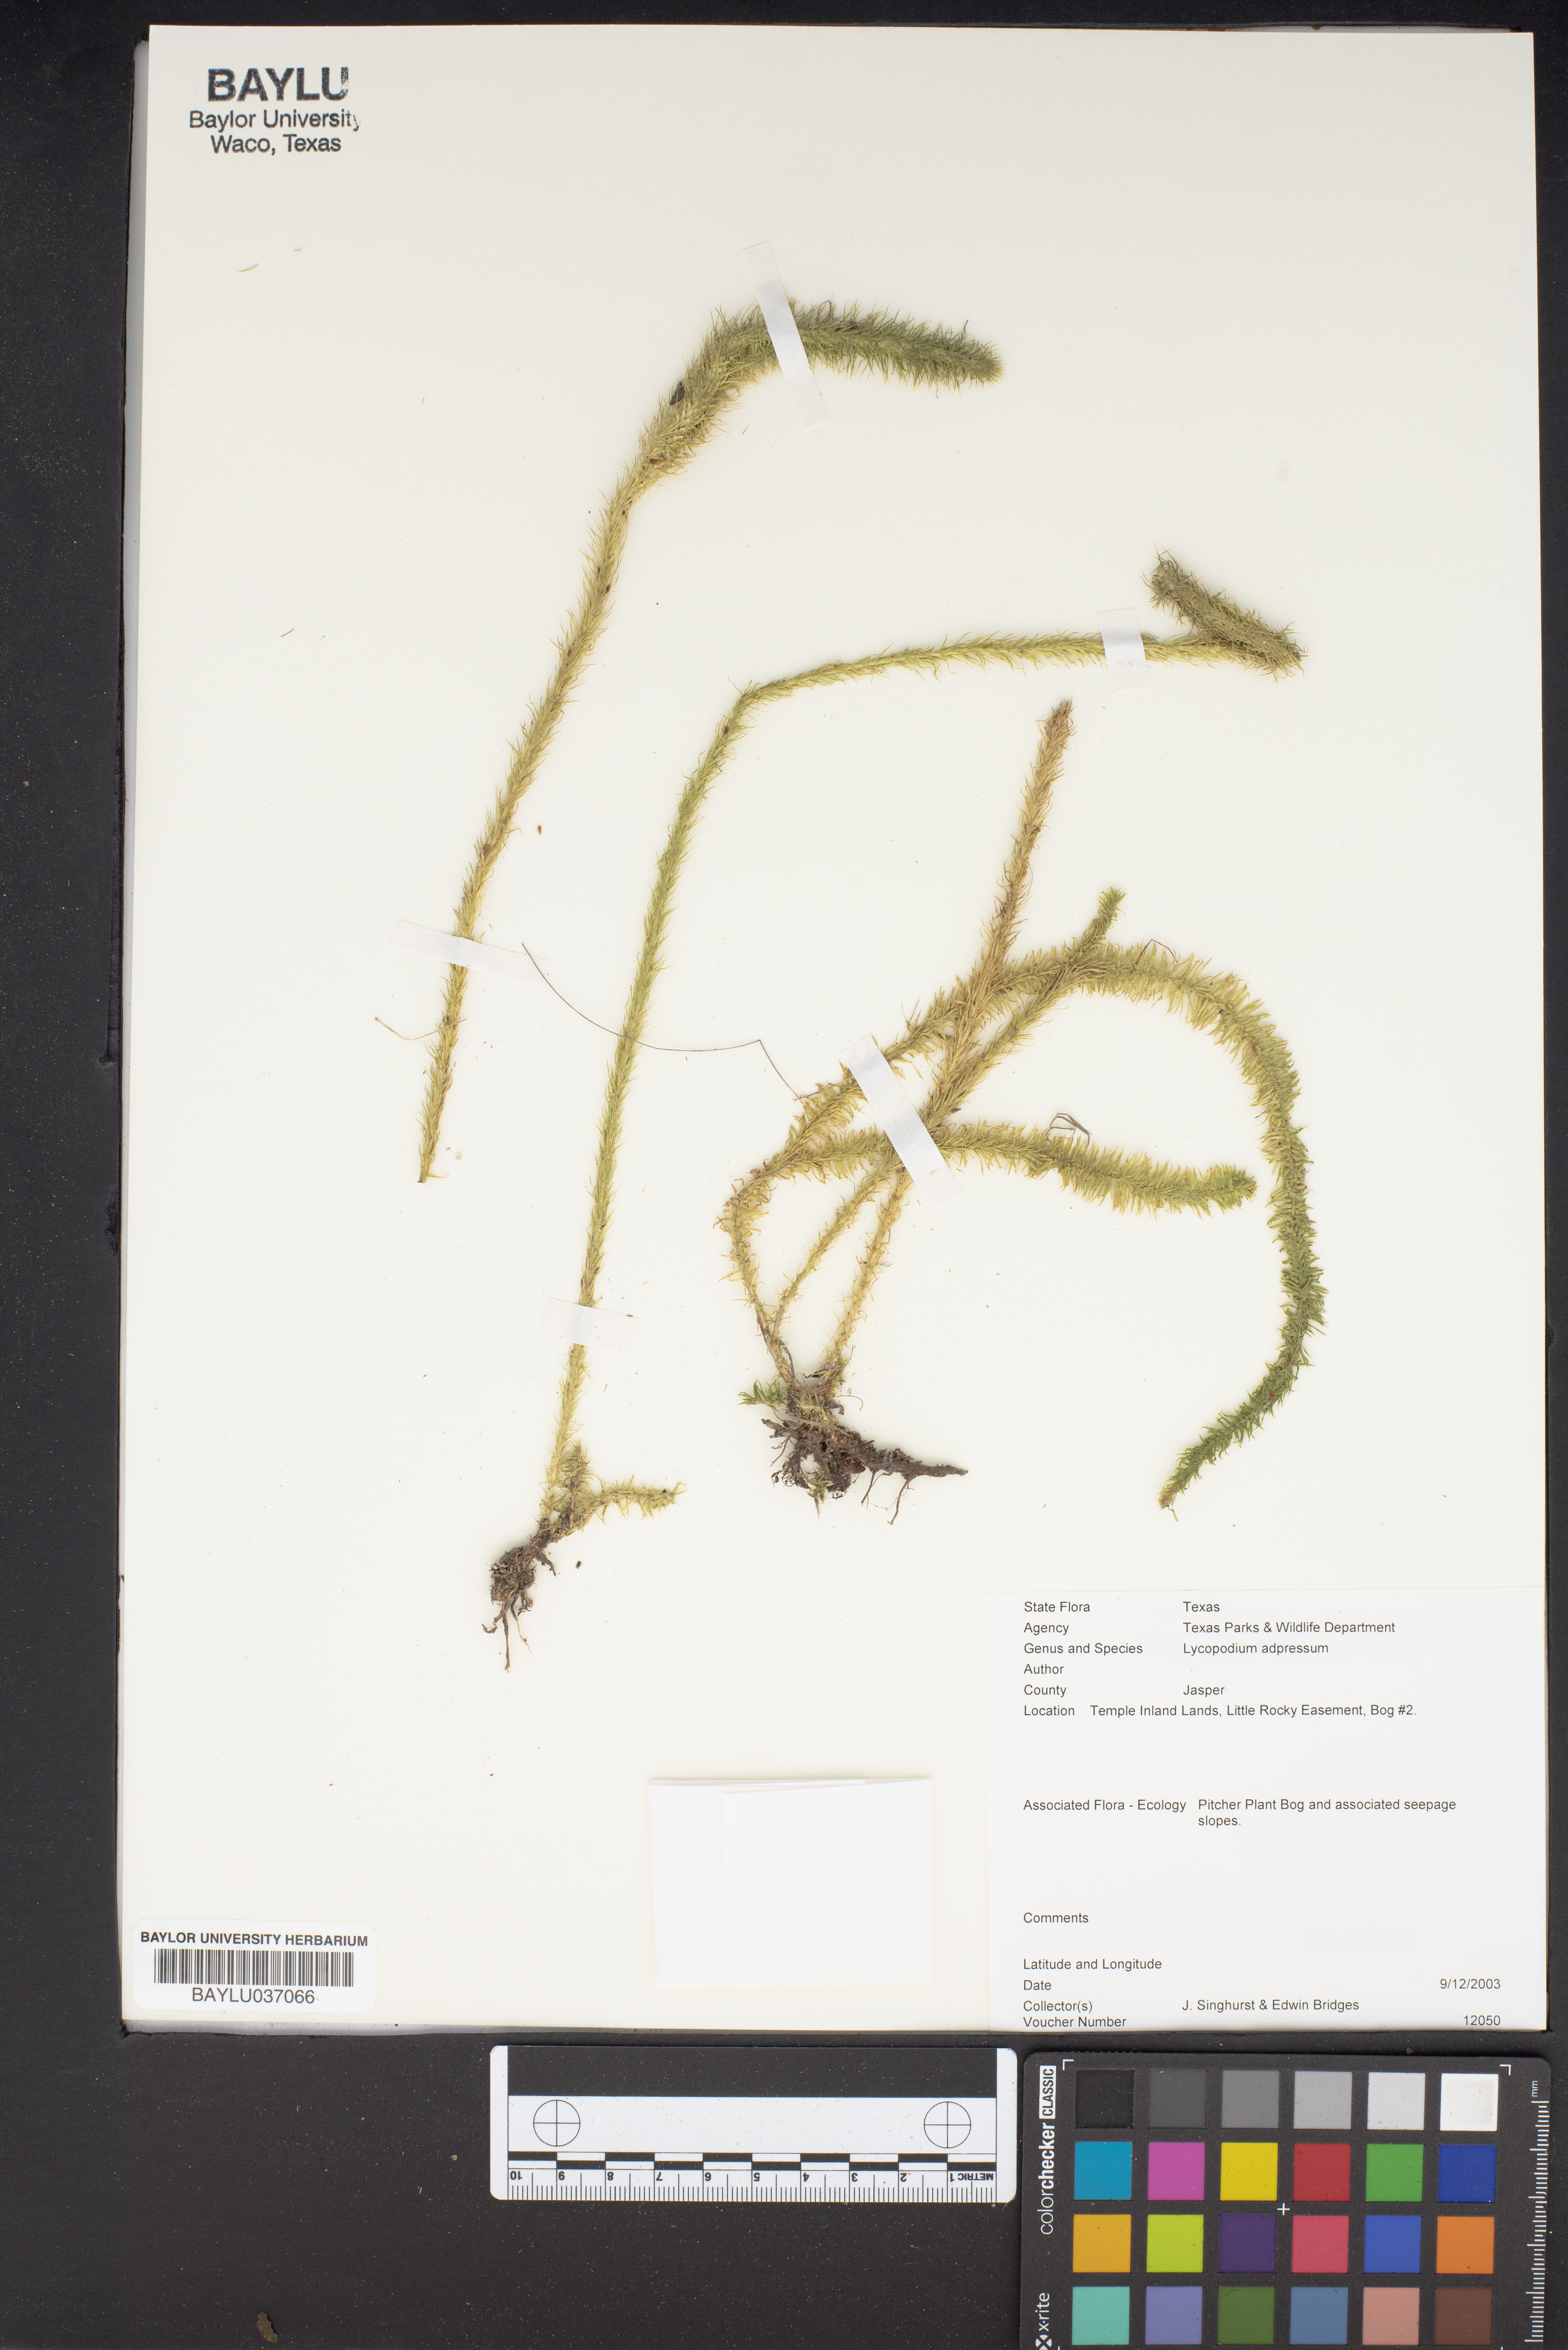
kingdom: Plantae
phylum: Tracheophyta
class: Lycopodiopsida
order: Lycopodiales
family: Lycopodiaceae
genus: Lycopodiella
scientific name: Lycopodiella appressa
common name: Appressed bog clubmoss
